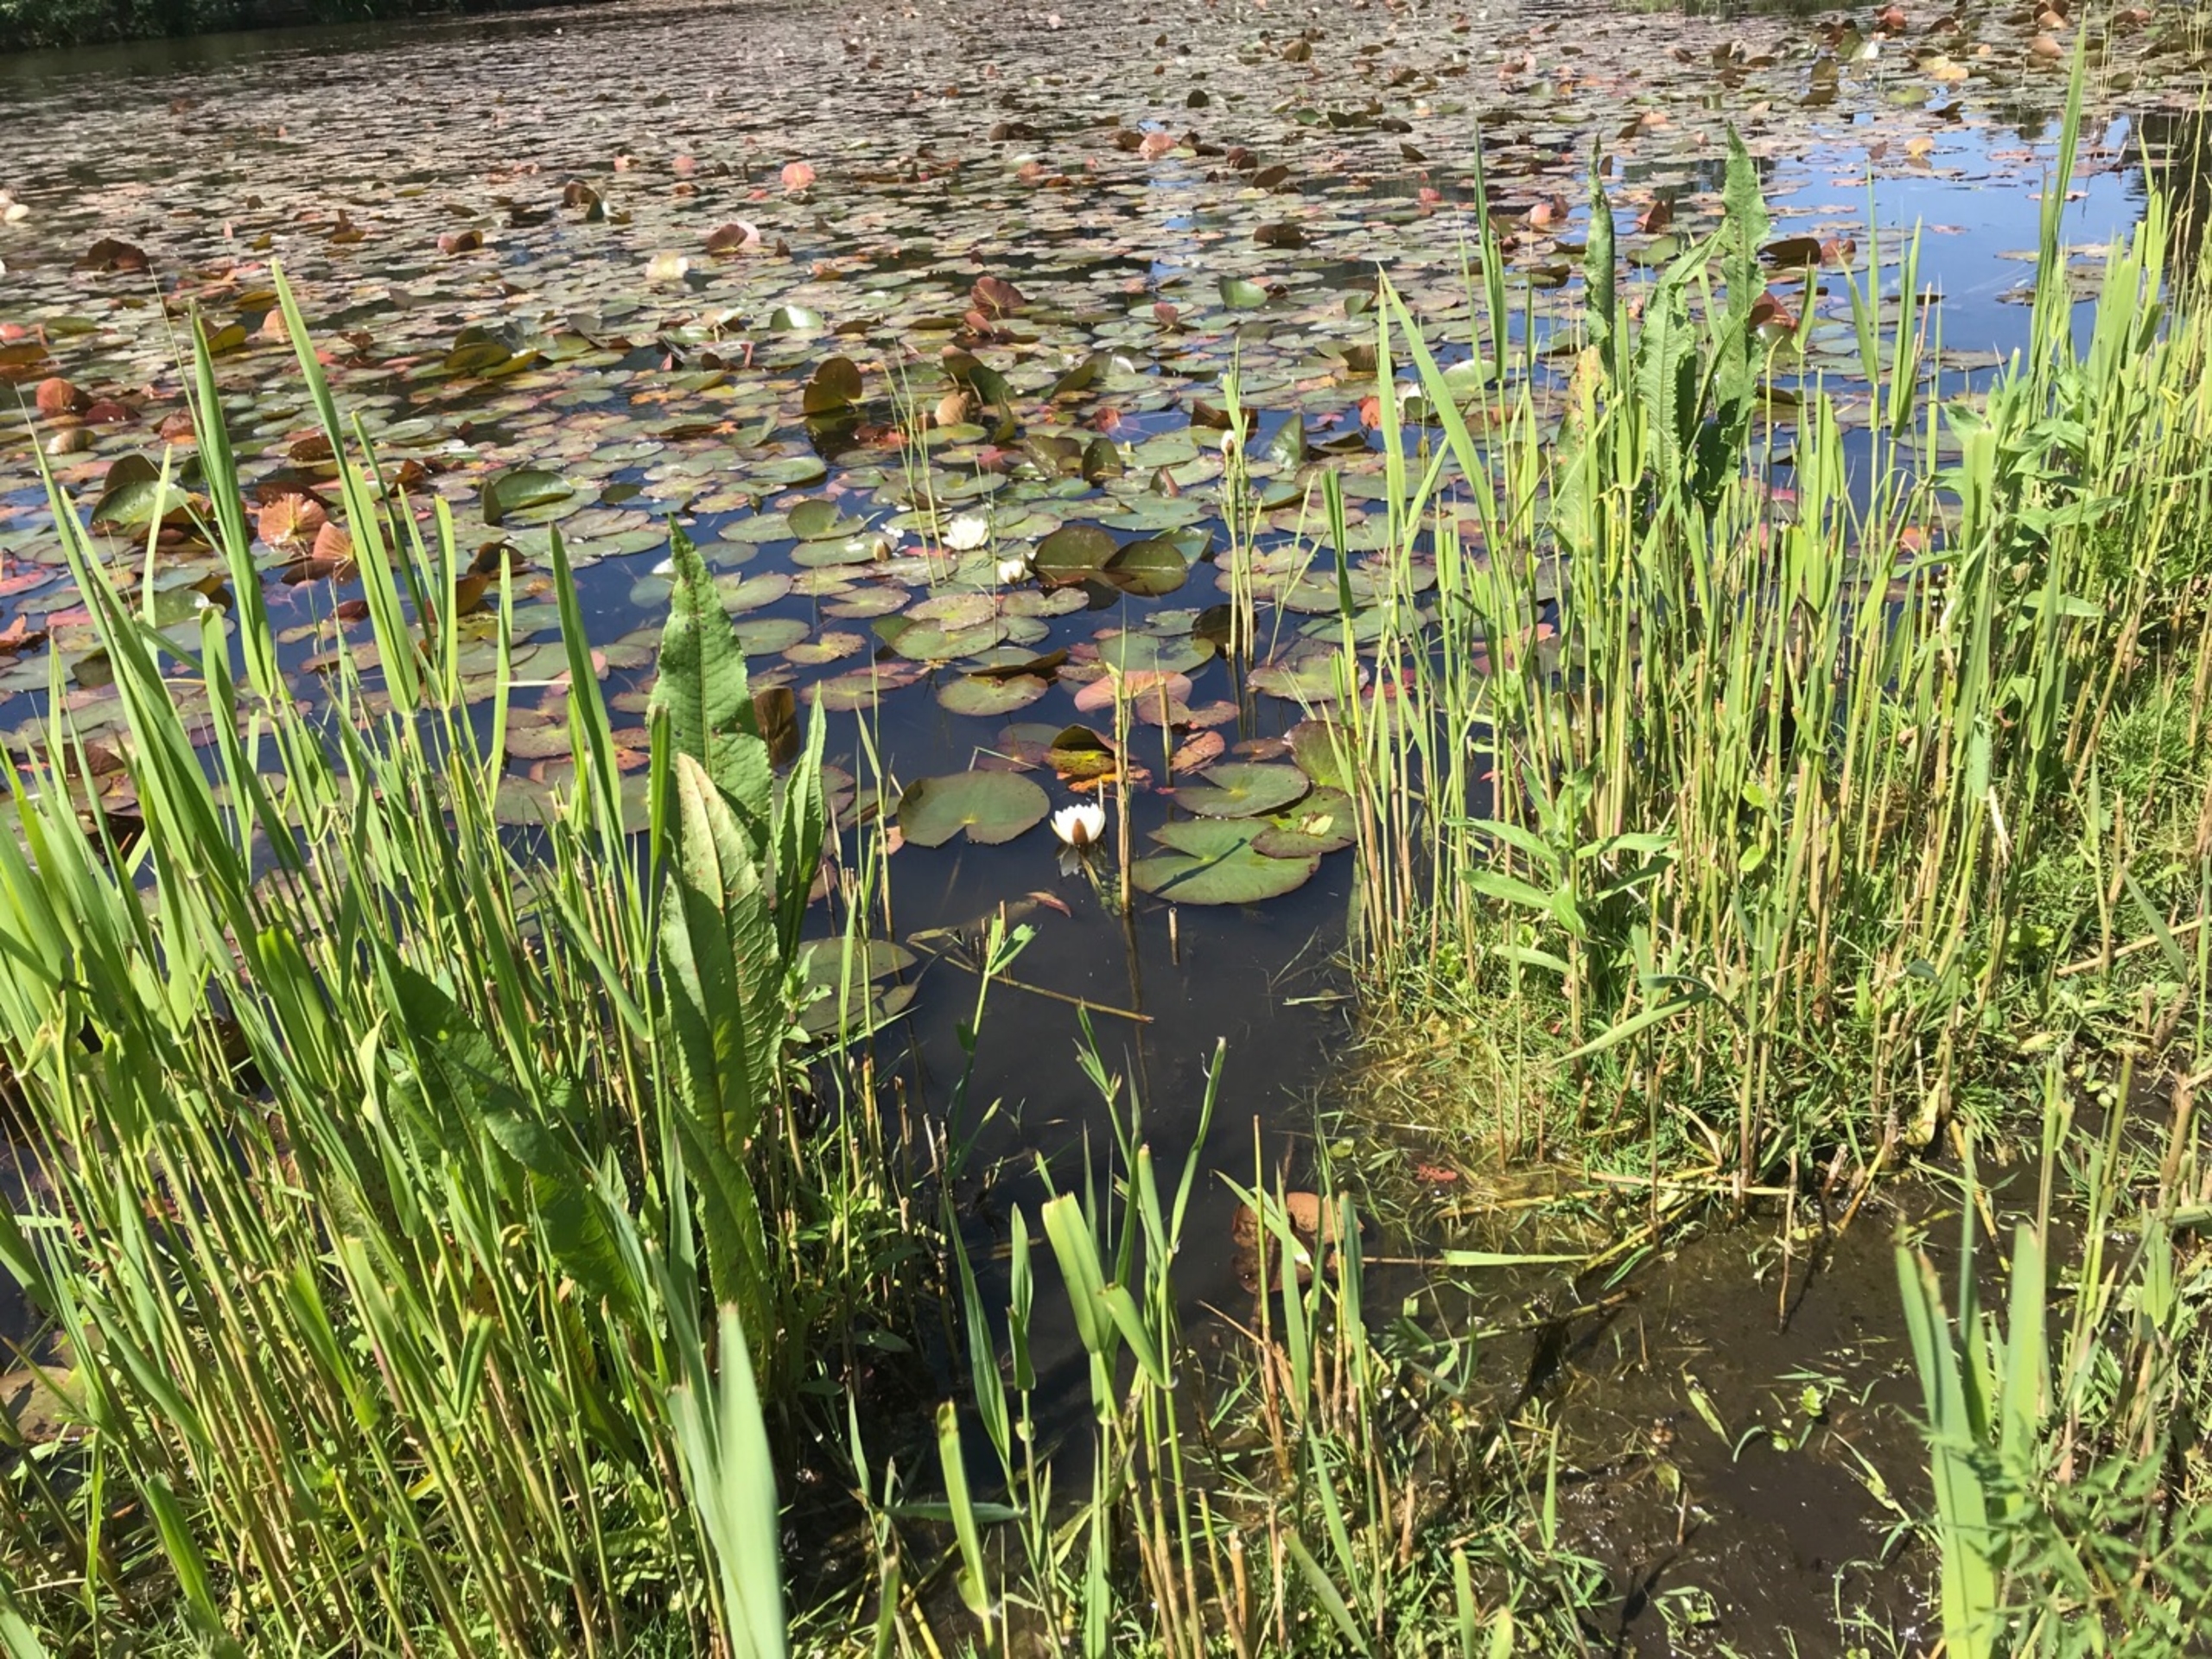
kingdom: Plantae
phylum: Tracheophyta
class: Magnoliopsida
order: Nymphaeales
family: Nymphaeaceae
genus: Nymphaea
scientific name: Nymphaea alba
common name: Hvid åkande
